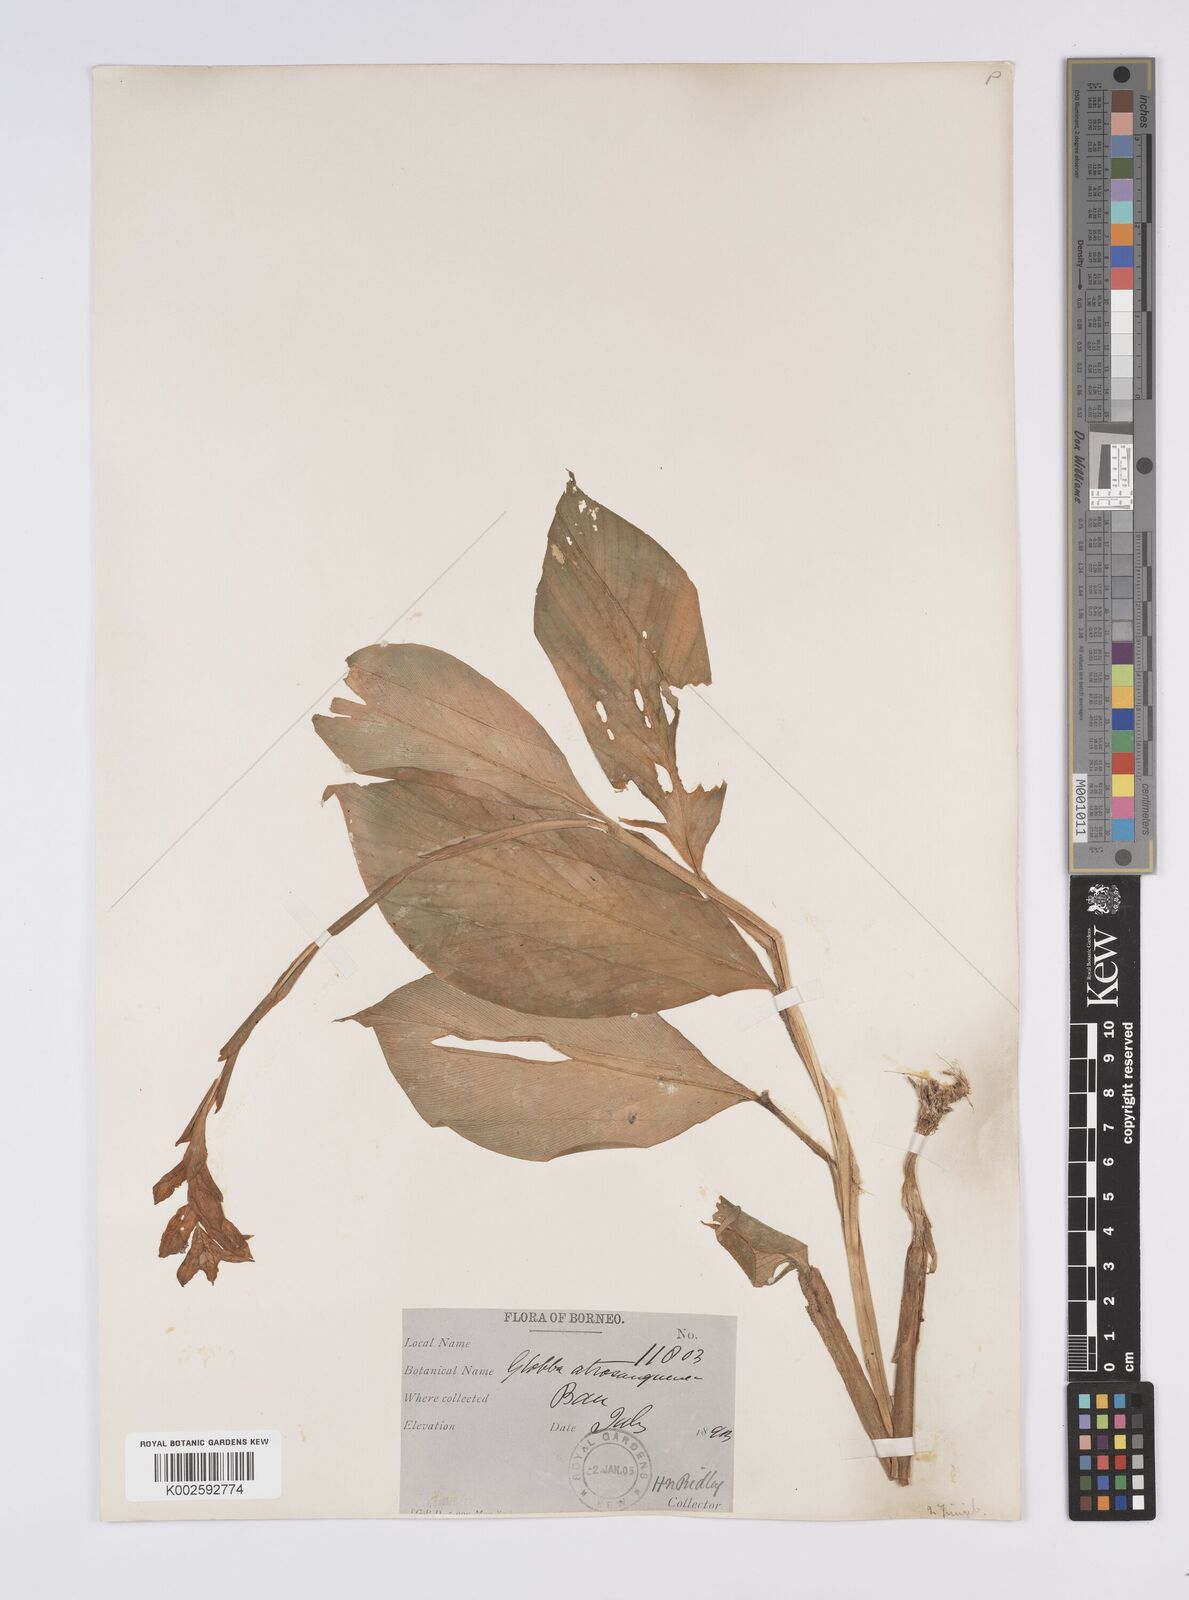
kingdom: Plantae
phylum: Tracheophyta
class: Liliopsida
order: Zingiberales
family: Zingiberaceae
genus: Globba
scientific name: Globba atrosanguinea
